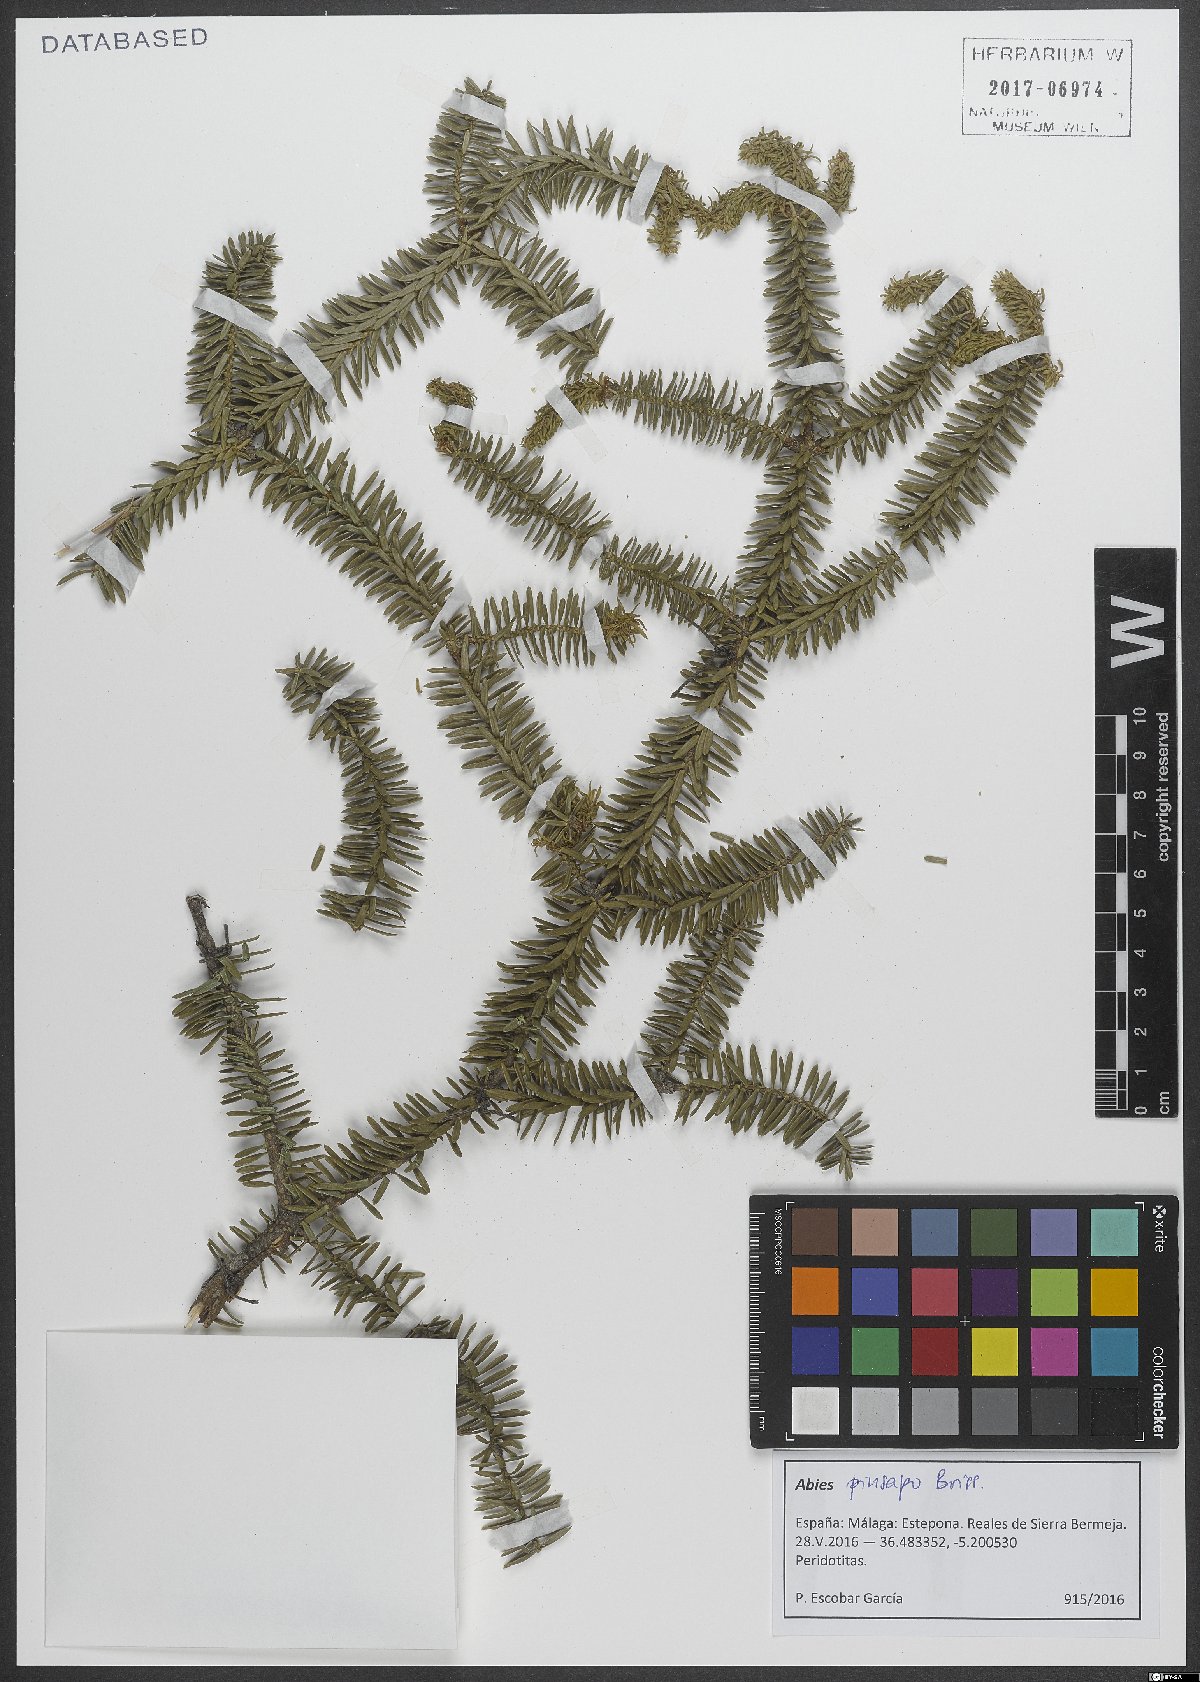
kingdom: Plantae
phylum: Tracheophyta
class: Pinopsida
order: Pinales
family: Pinaceae
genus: Abies
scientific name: Abies pinsapo
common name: Spanish fir
